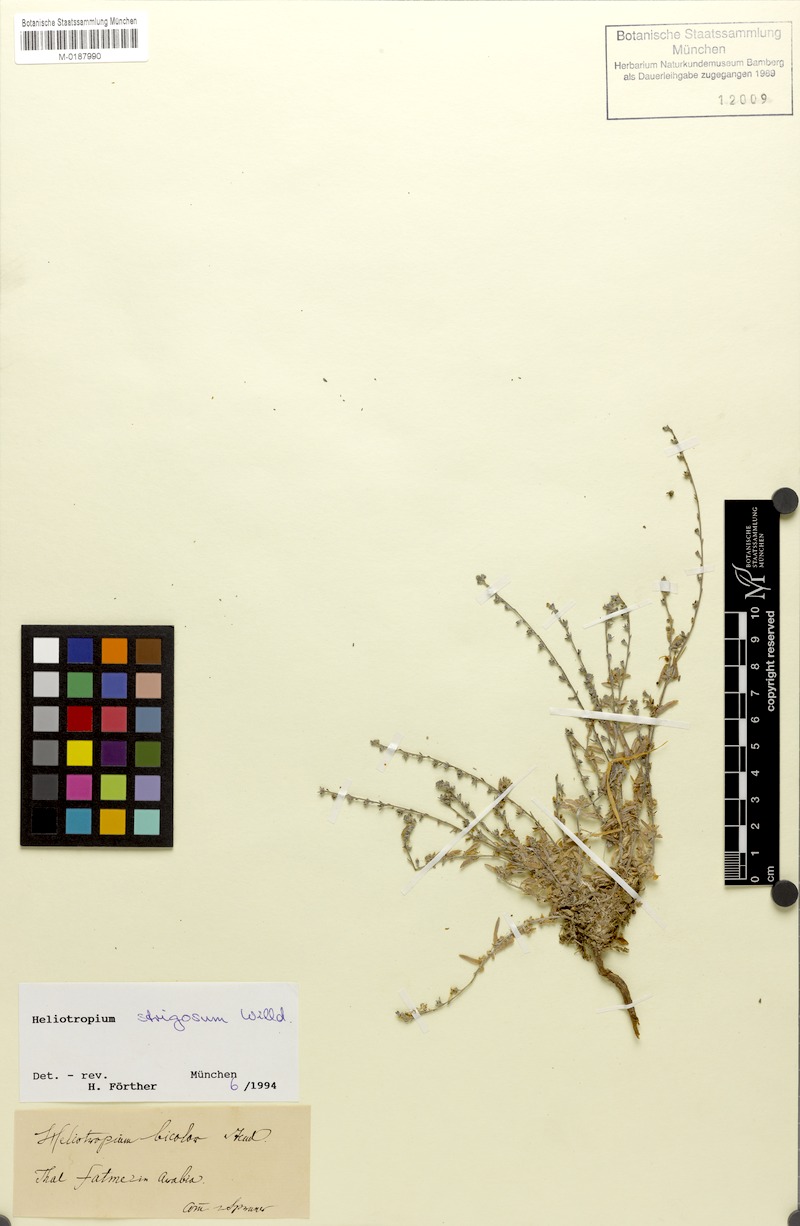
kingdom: Plantae
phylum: Tracheophyta
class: Magnoliopsida
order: Boraginales
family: Heliotropiaceae
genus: Euploca
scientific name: Euploca strigosa
